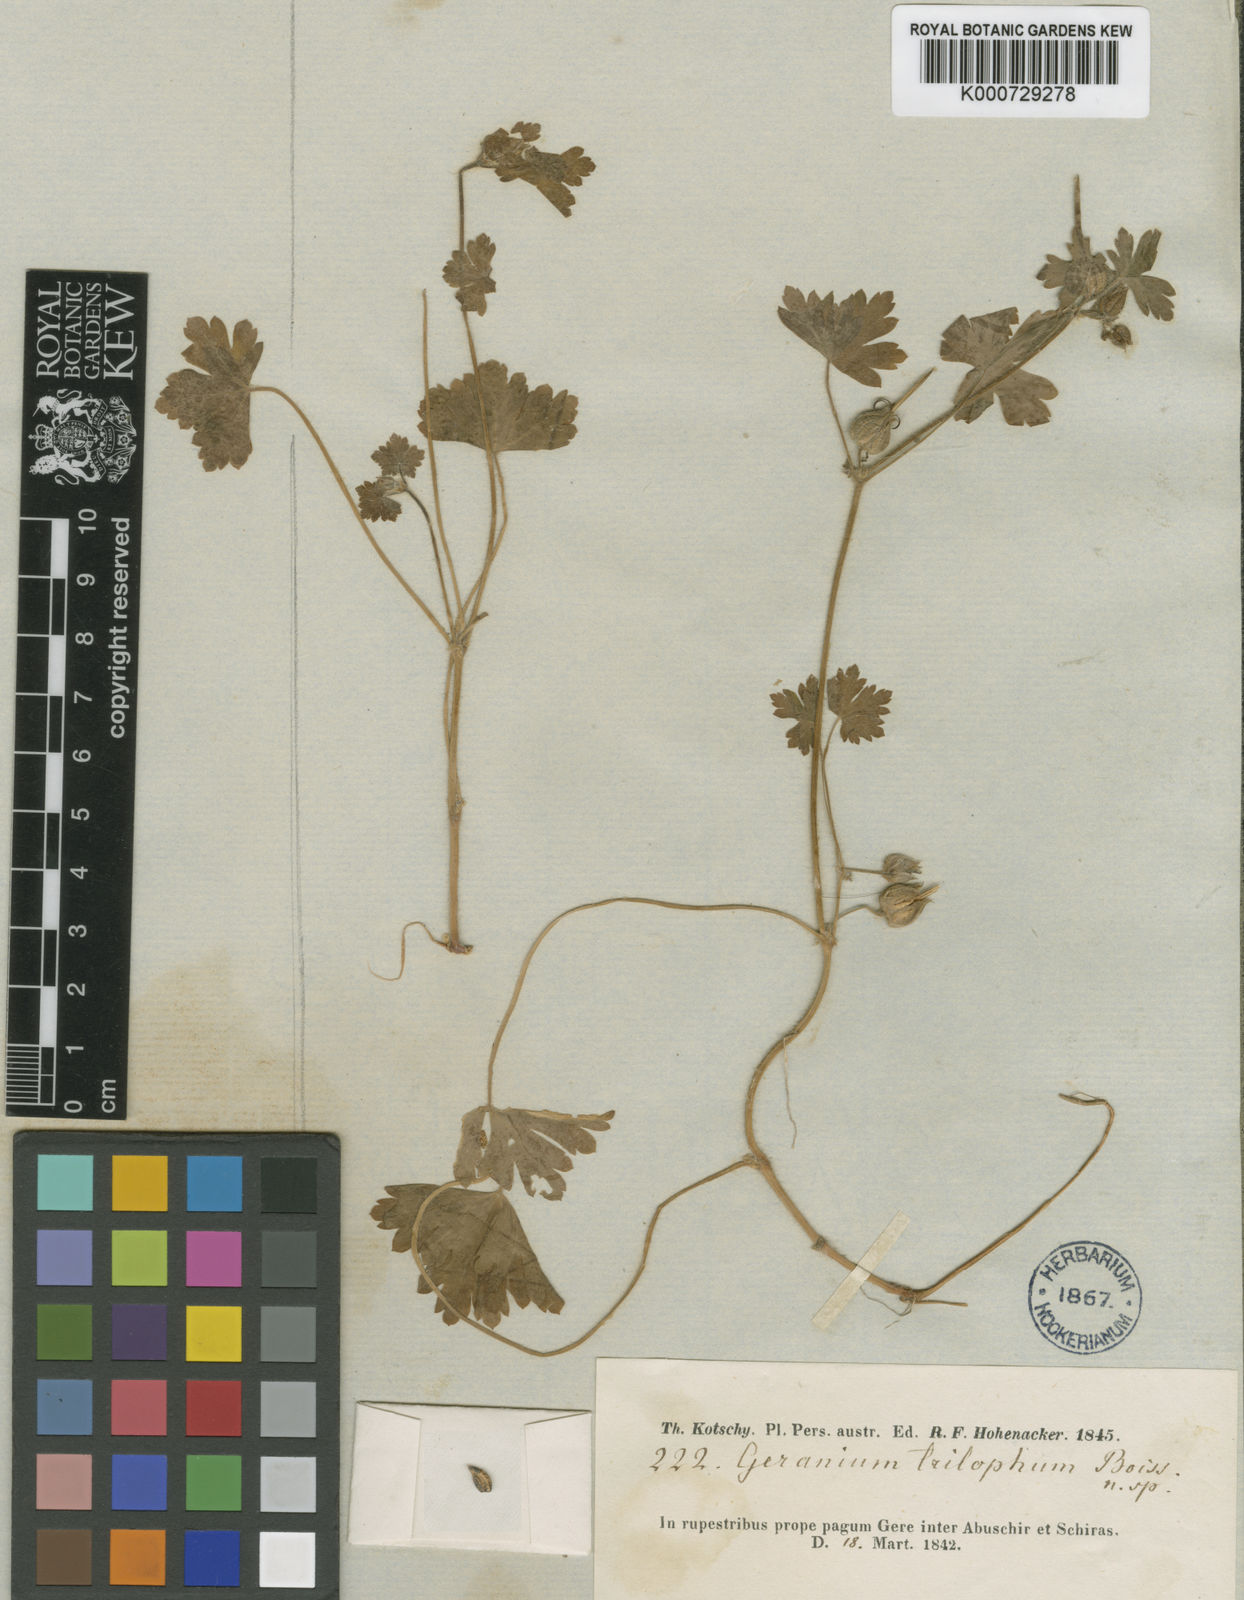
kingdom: Plantae
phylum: Tracheophyta
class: Magnoliopsida
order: Geraniales
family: Geraniaceae
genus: Geranium
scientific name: Geranium trilophum
